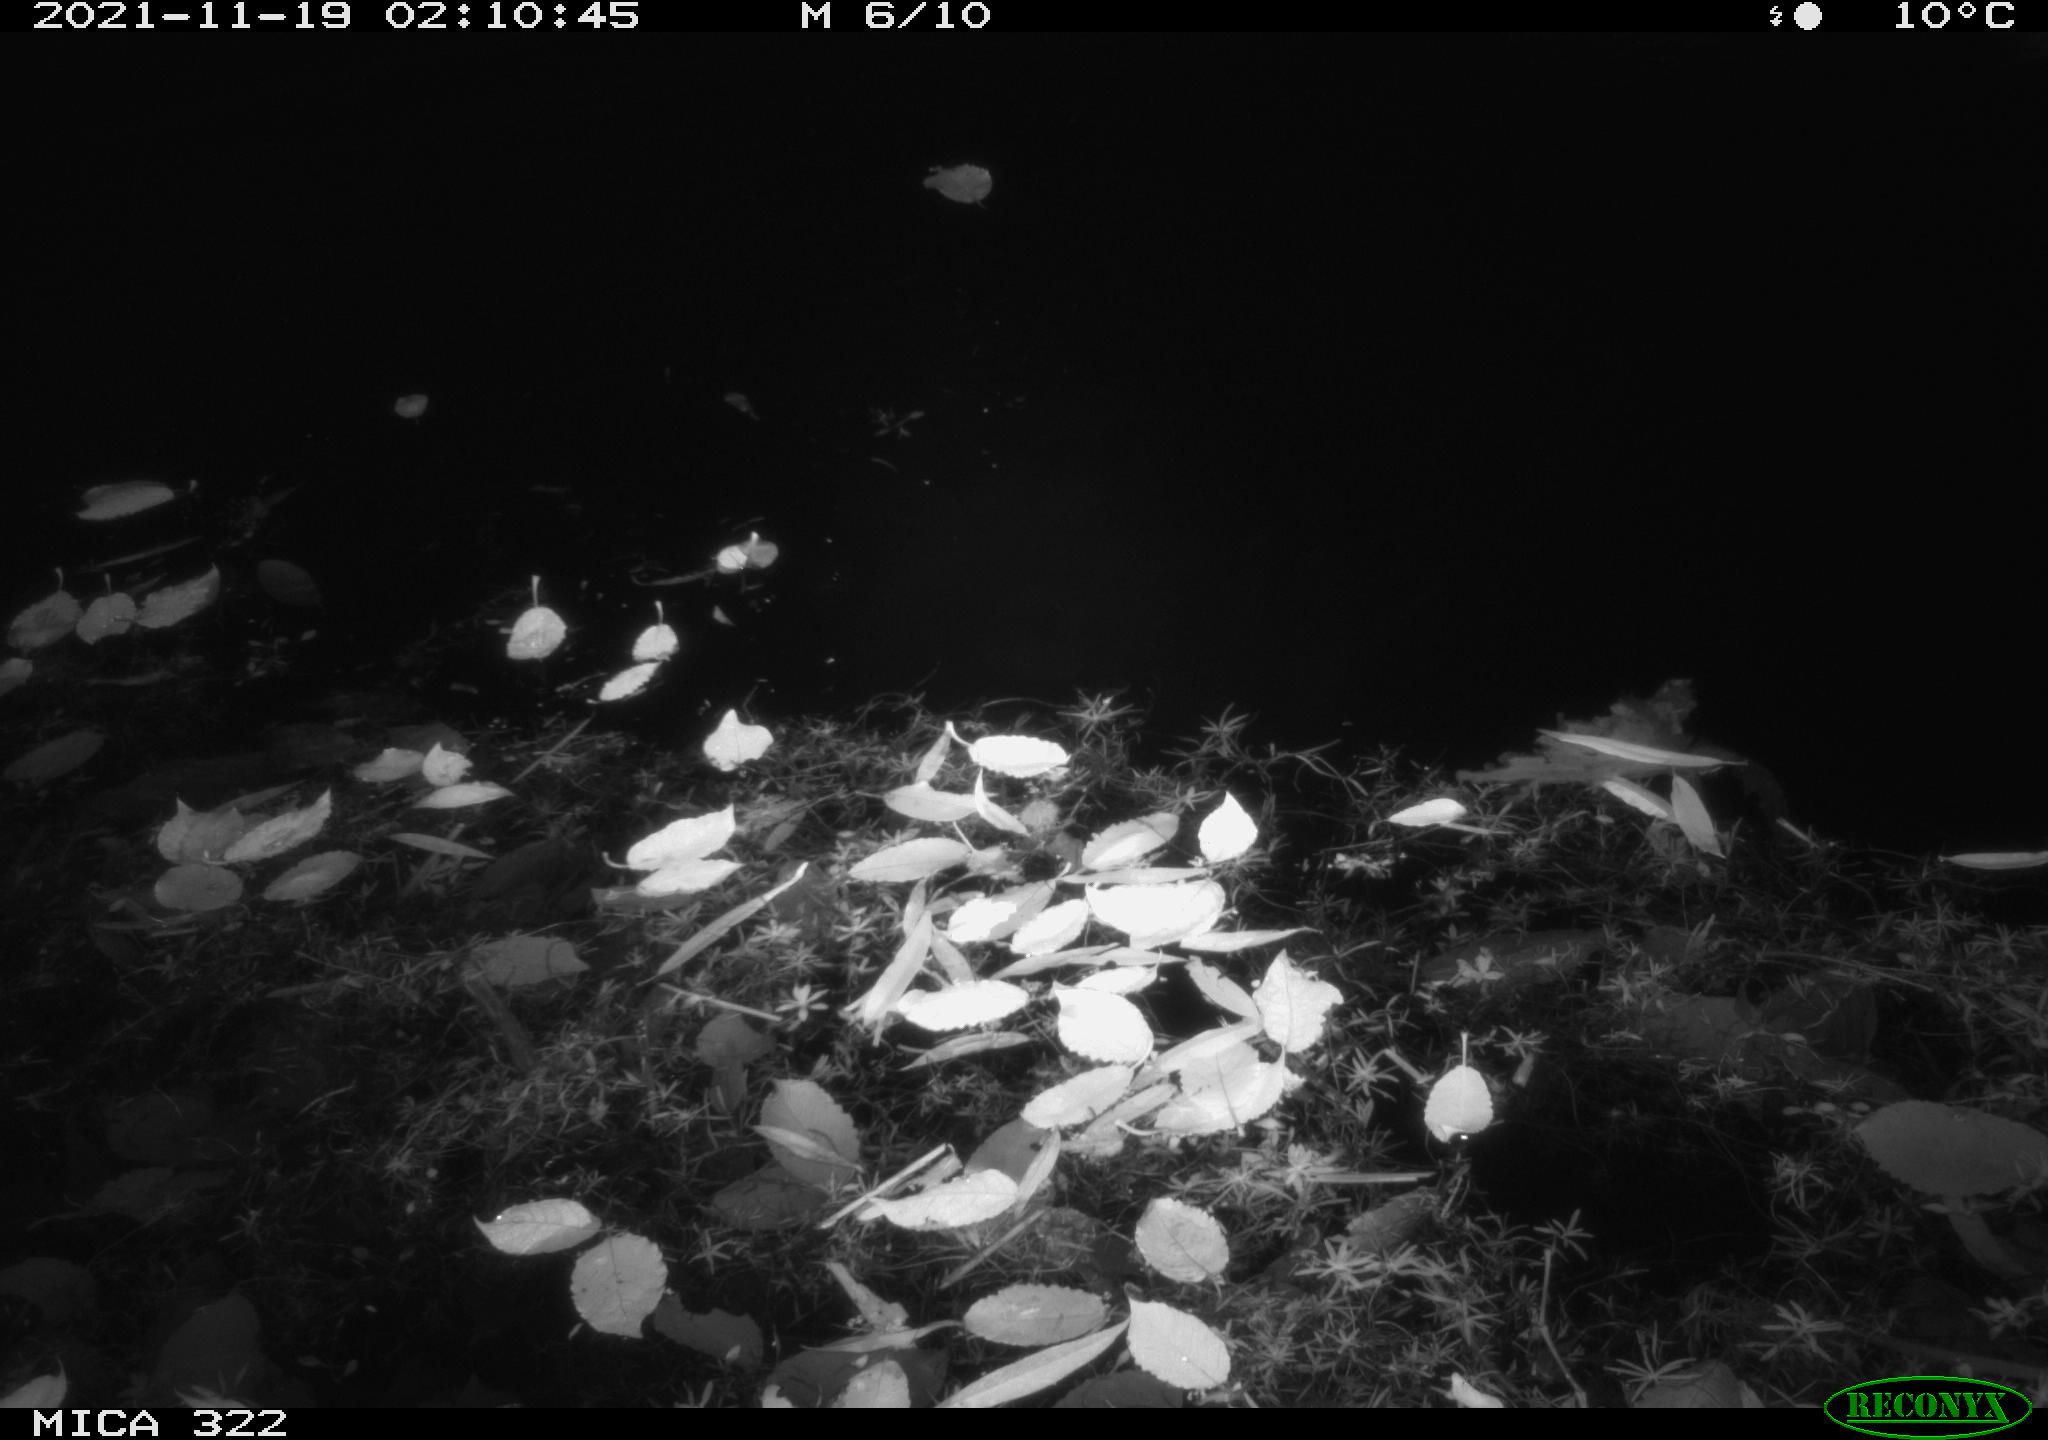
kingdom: Animalia
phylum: Chordata
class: Aves
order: Anseriformes
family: Anatidae
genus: Anas
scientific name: Anas platyrhynchos
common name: Mallard
